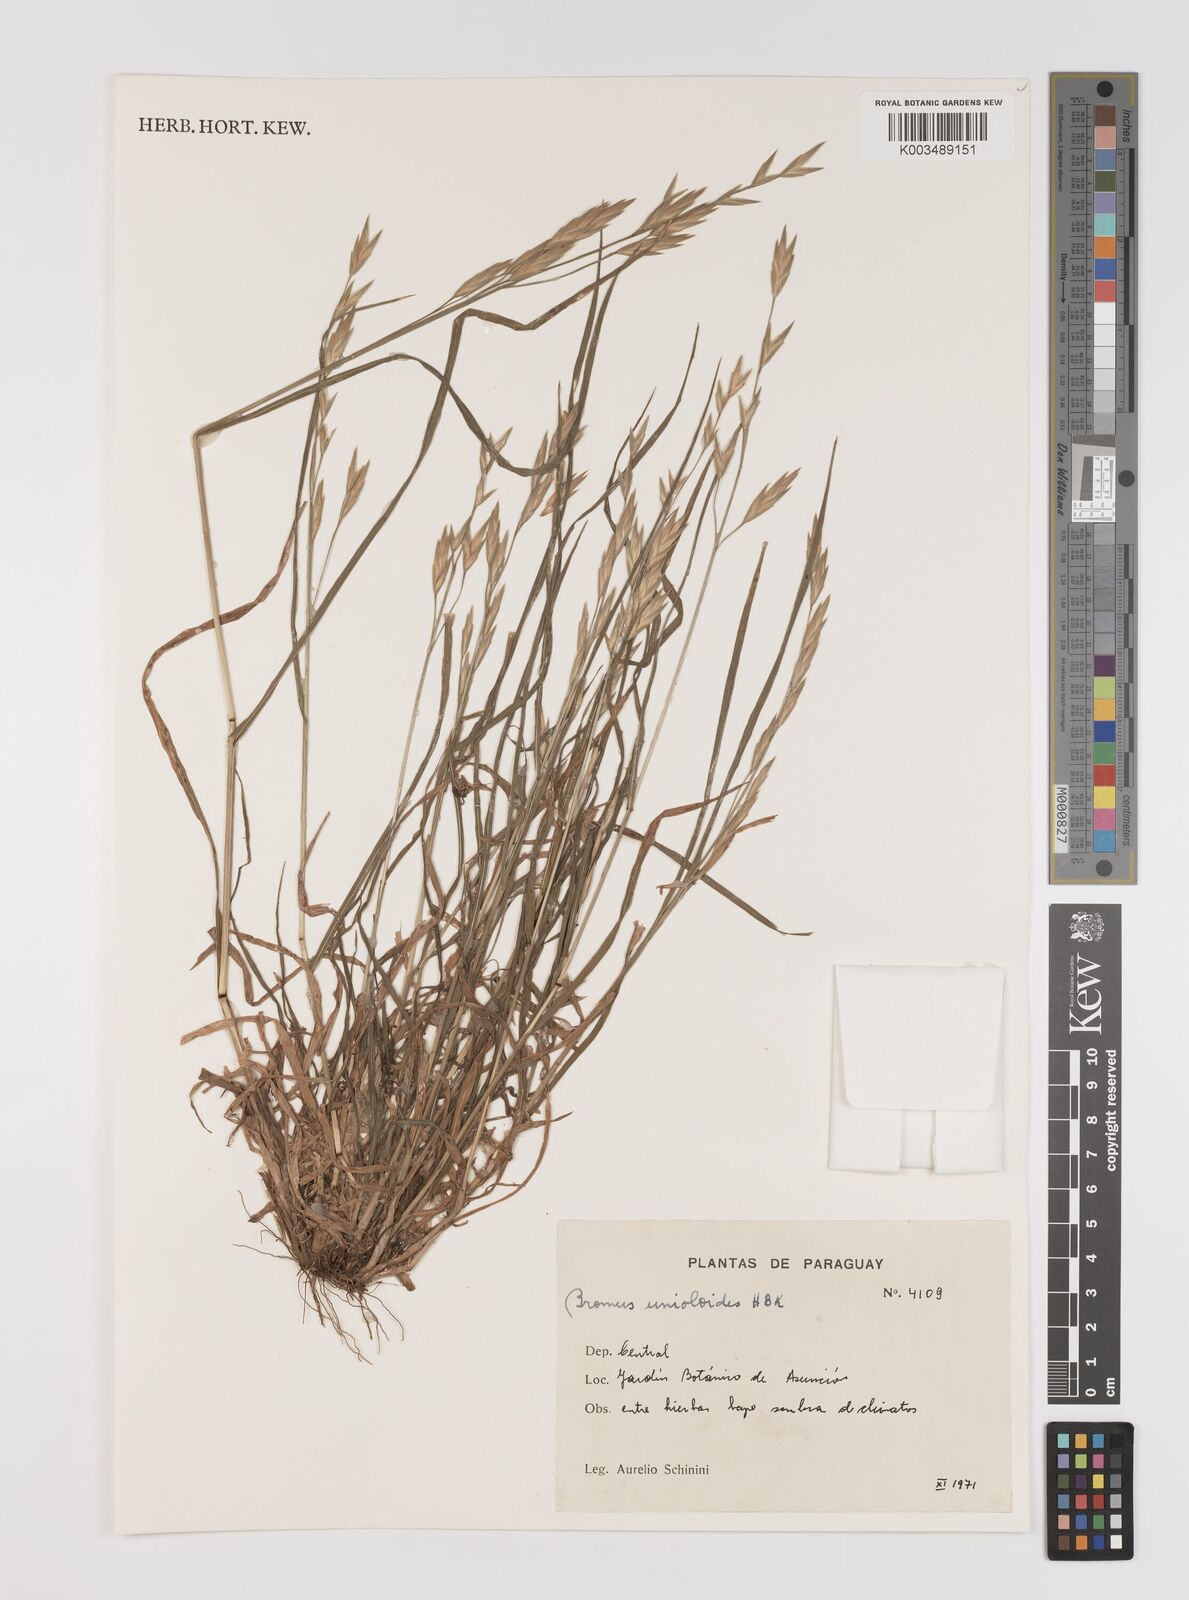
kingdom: Plantae
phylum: Tracheophyta
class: Liliopsida
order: Poales
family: Poaceae
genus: Bromus
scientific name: Bromus catharticus
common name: Rescuegrass
